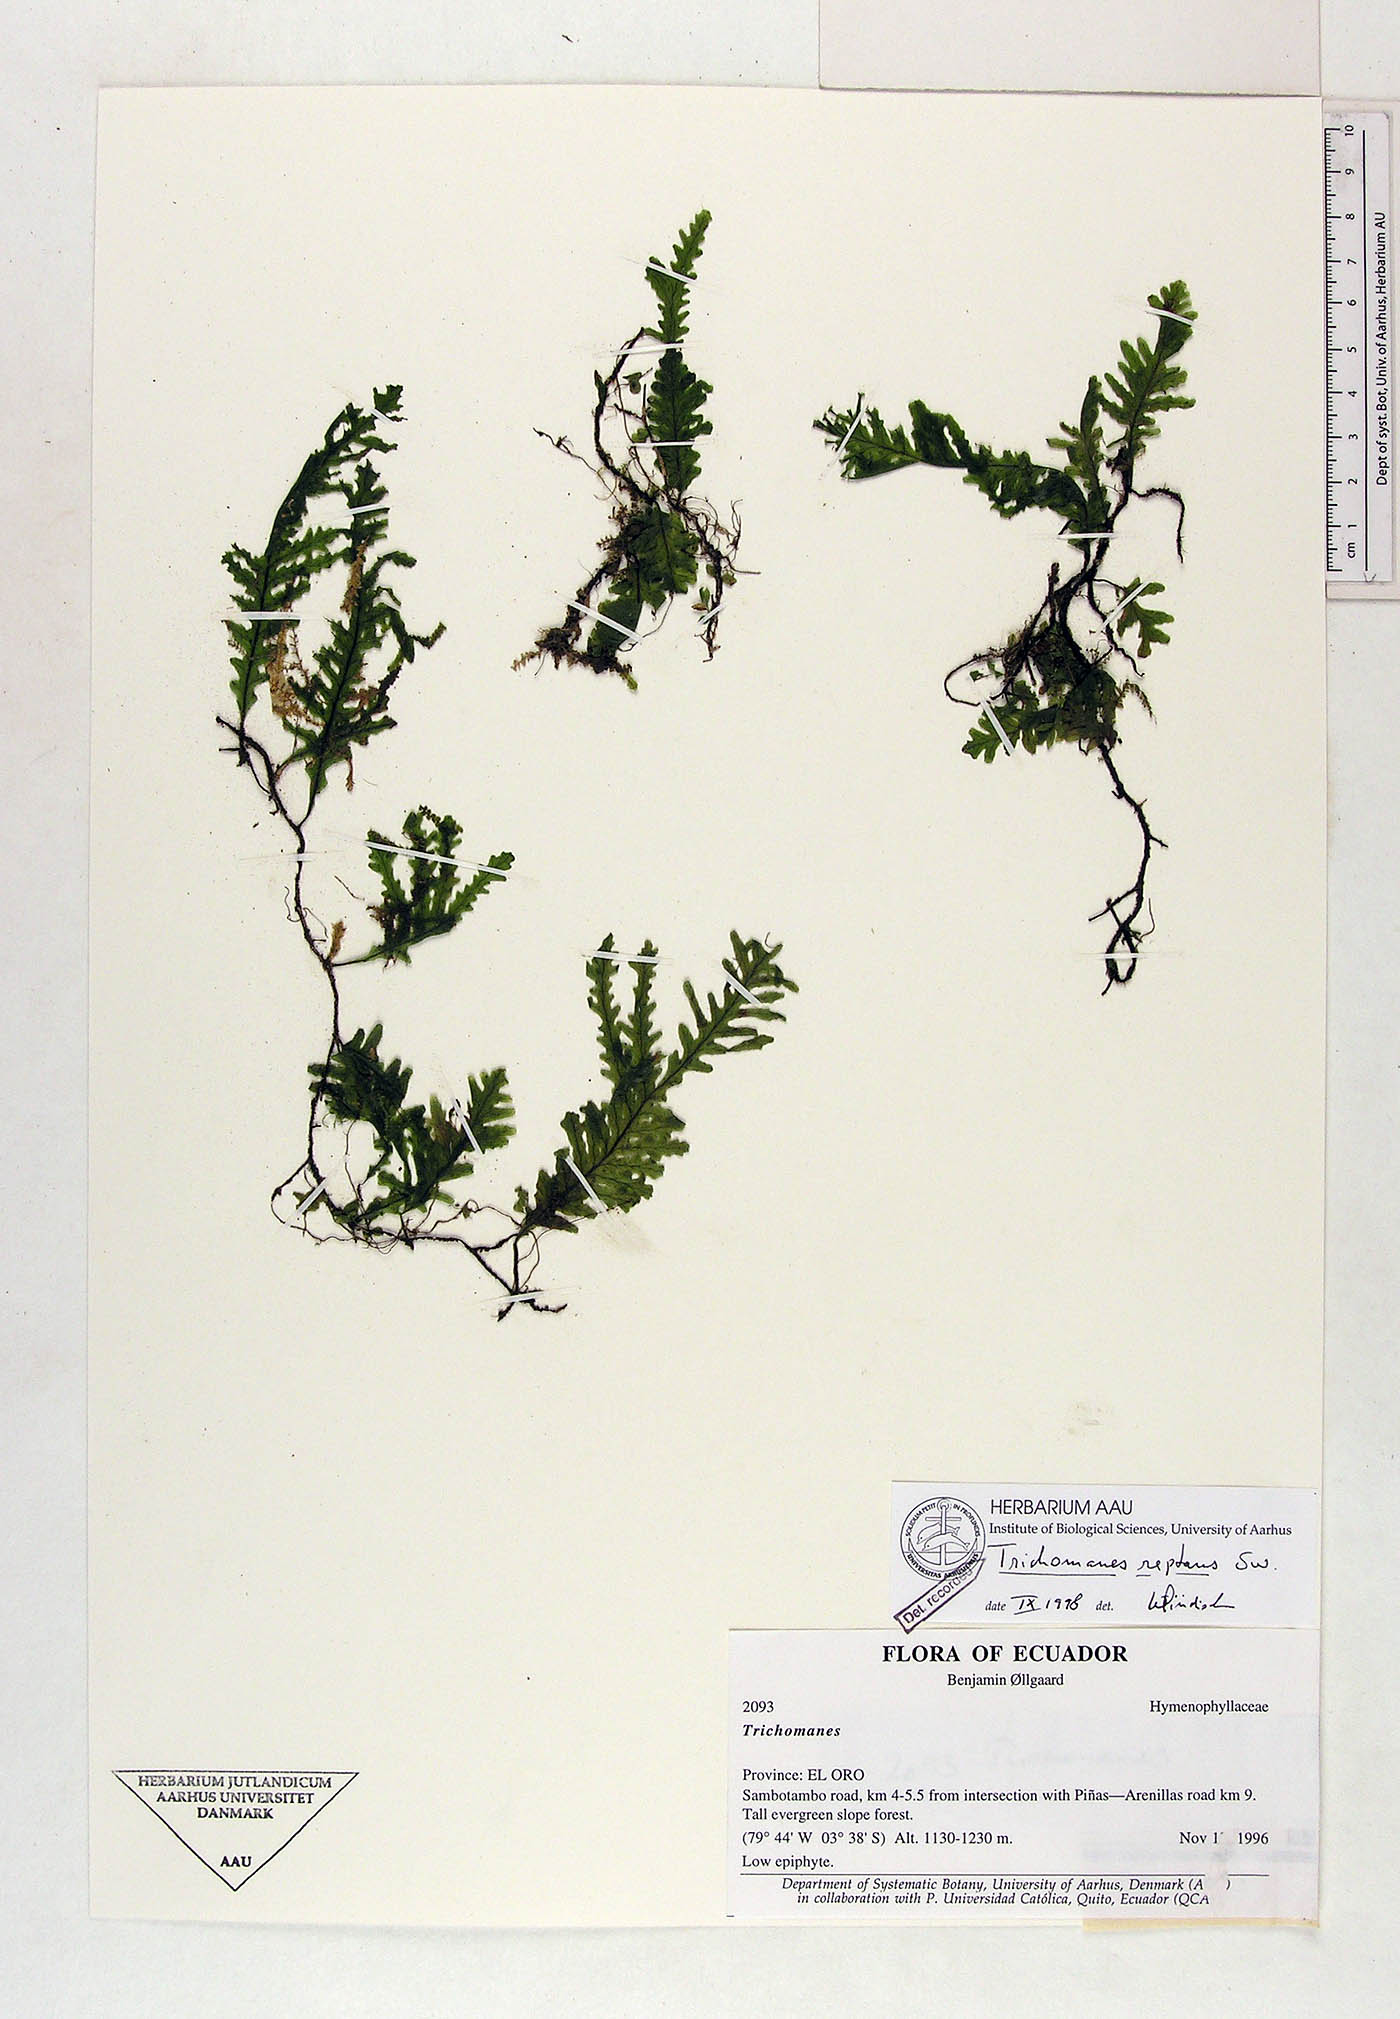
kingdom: Plantae
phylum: Tracheophyta
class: Polypodiopsida
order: Hymenophyllales
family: Hymenophyllaceae
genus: Didymoglossum
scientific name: Didymoglossum reptans
